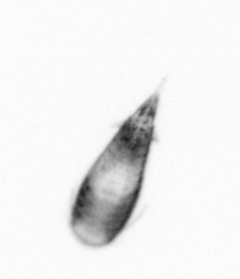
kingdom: Animalia
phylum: Arthropoda
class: Copepoda
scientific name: Copepoda
